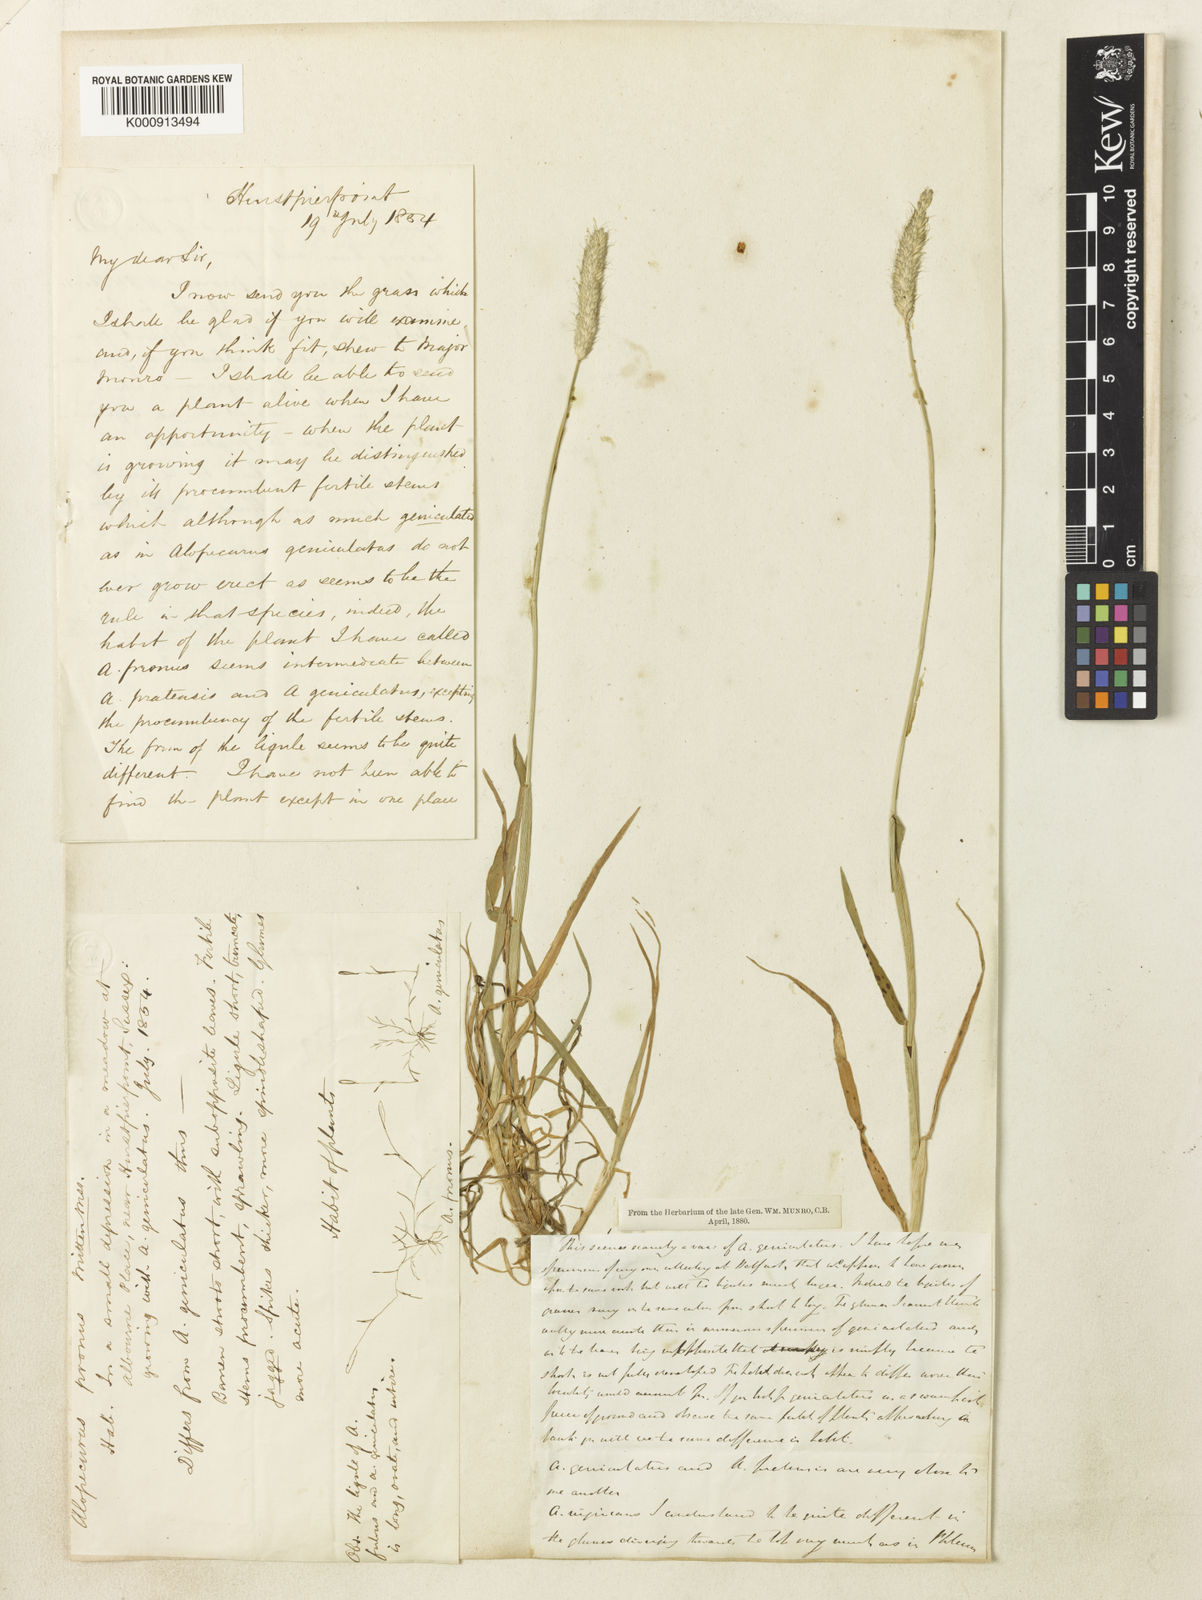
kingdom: Plantae
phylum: Tracheophyta
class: Liliopsida
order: Poales
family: Poaceae
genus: Alopecurus
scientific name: Alopecurus brachystylus
